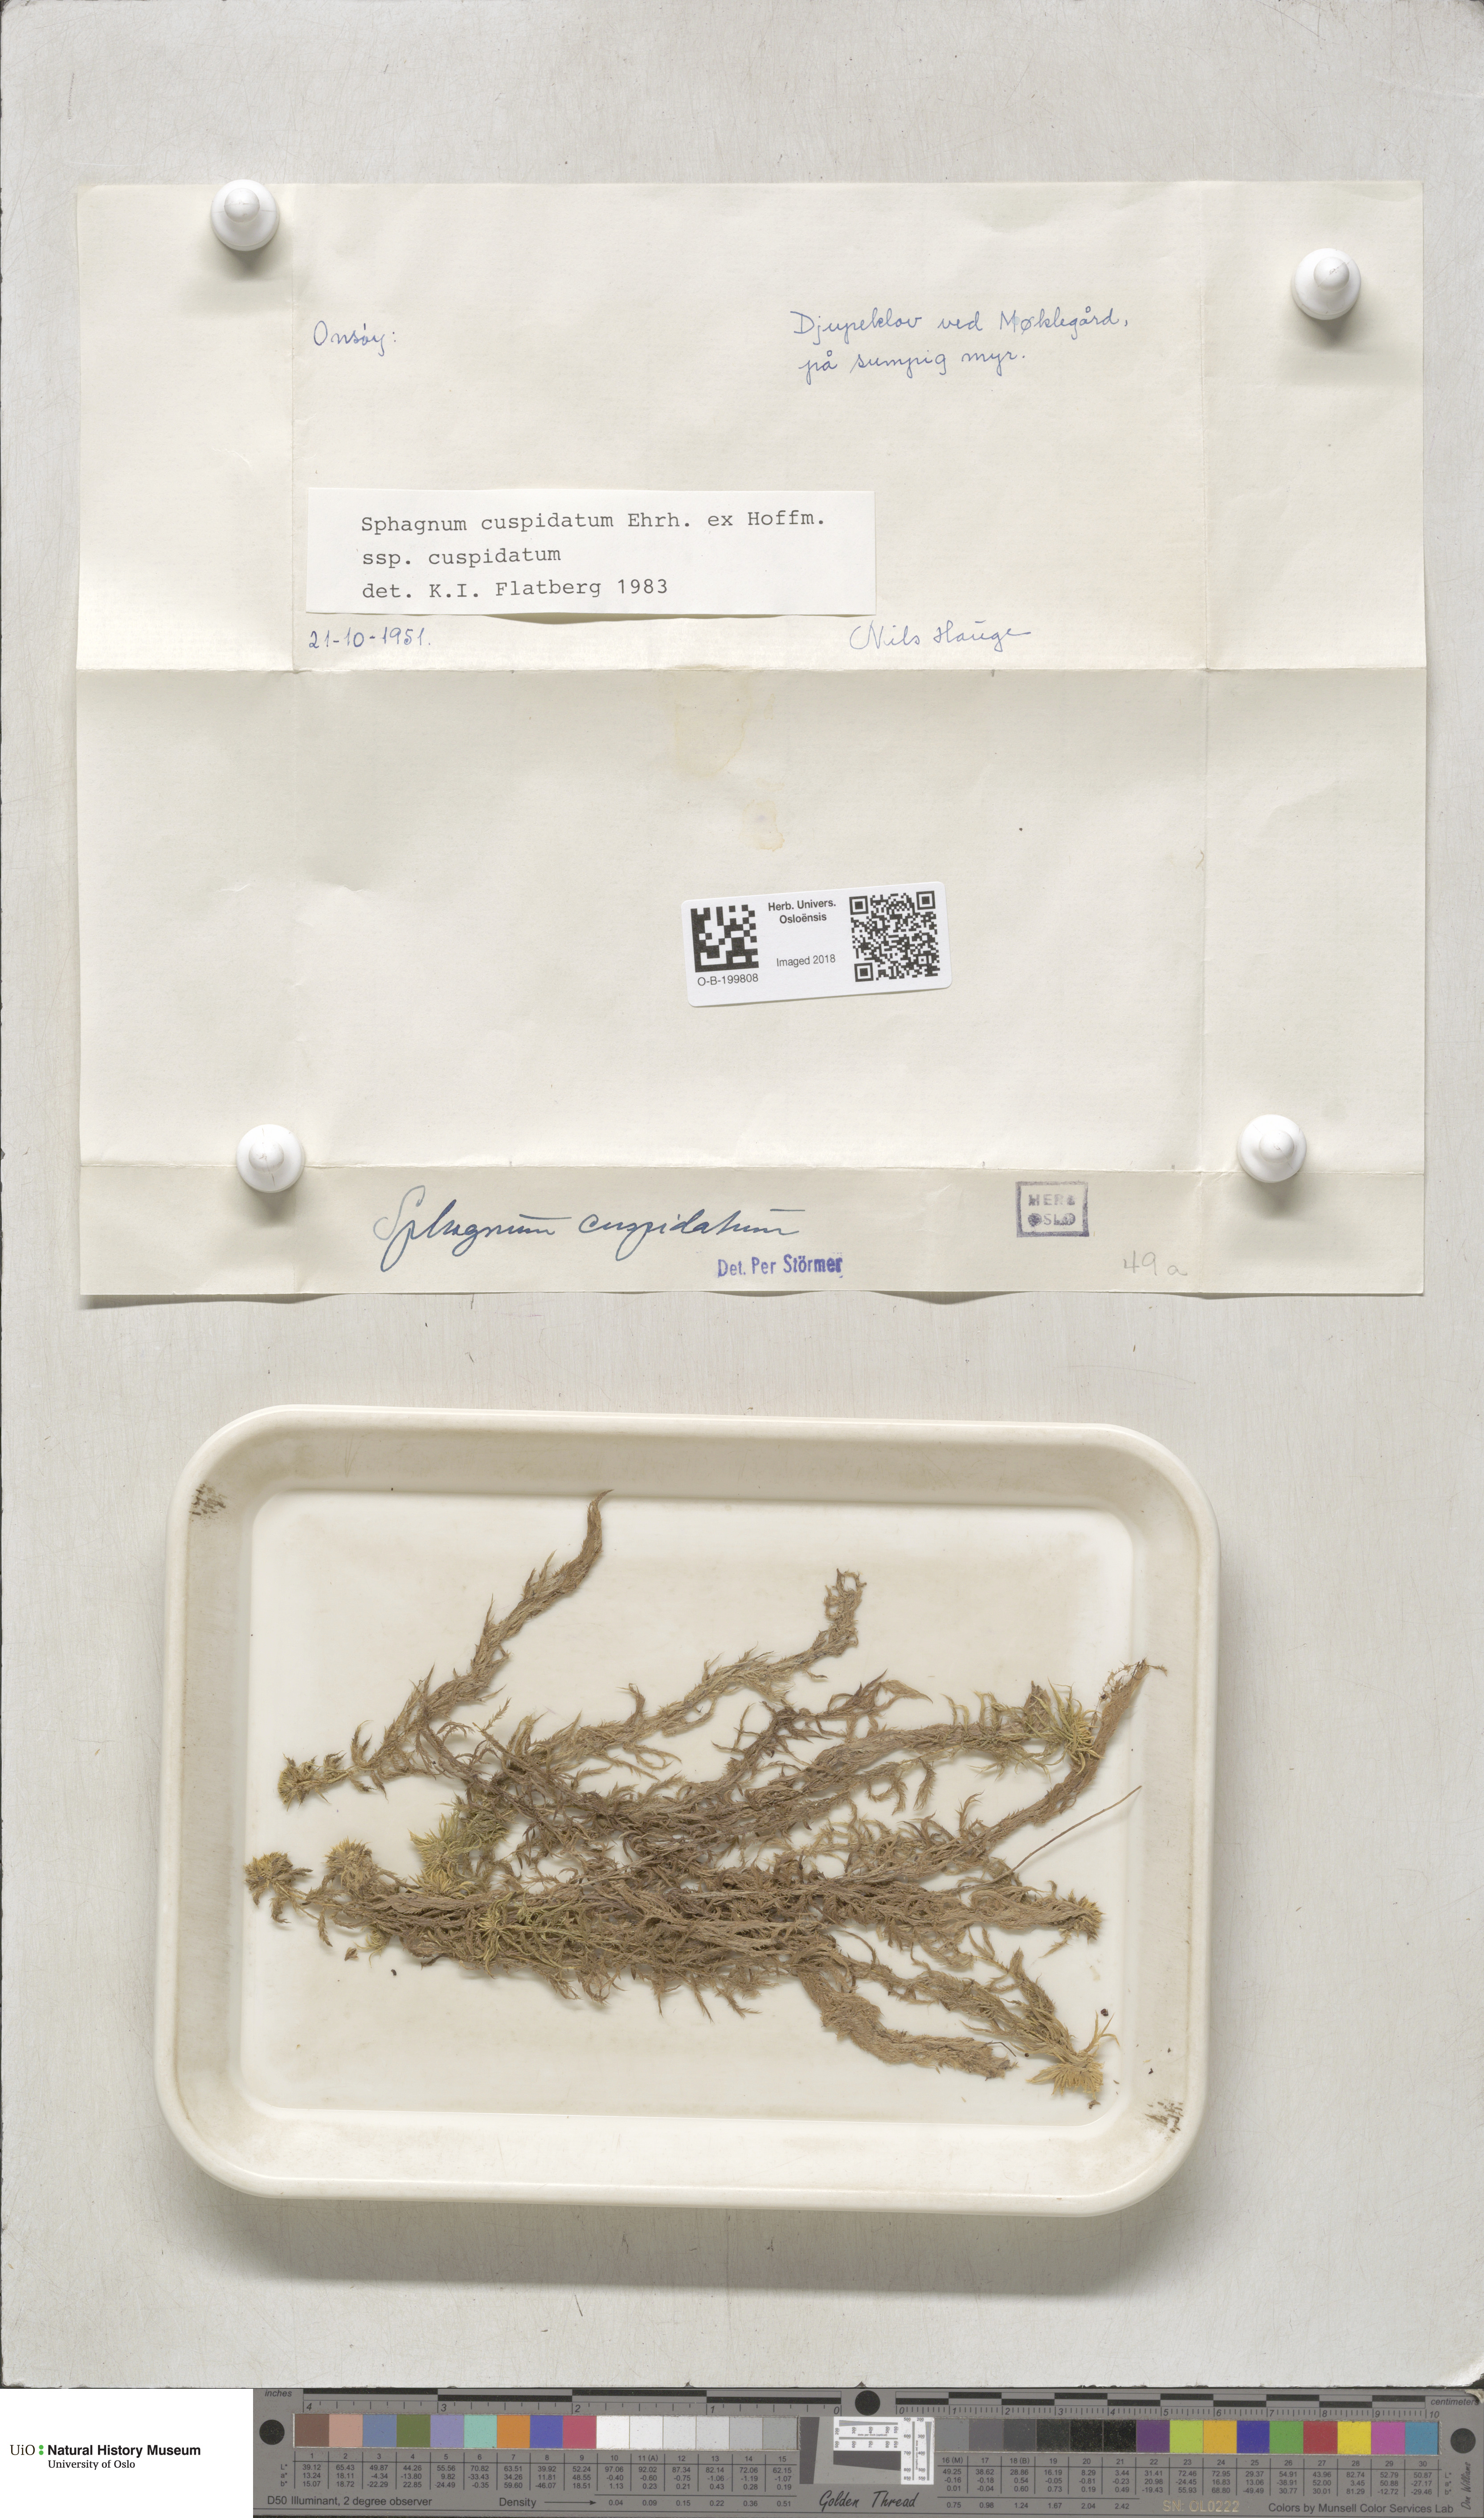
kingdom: Plantae
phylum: Bryophyta
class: Sphagnopsida
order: Sphagnales
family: Sphagnaceae
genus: Sphagnum
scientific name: Sphagnum cuspidatum
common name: Feathery peat moss
